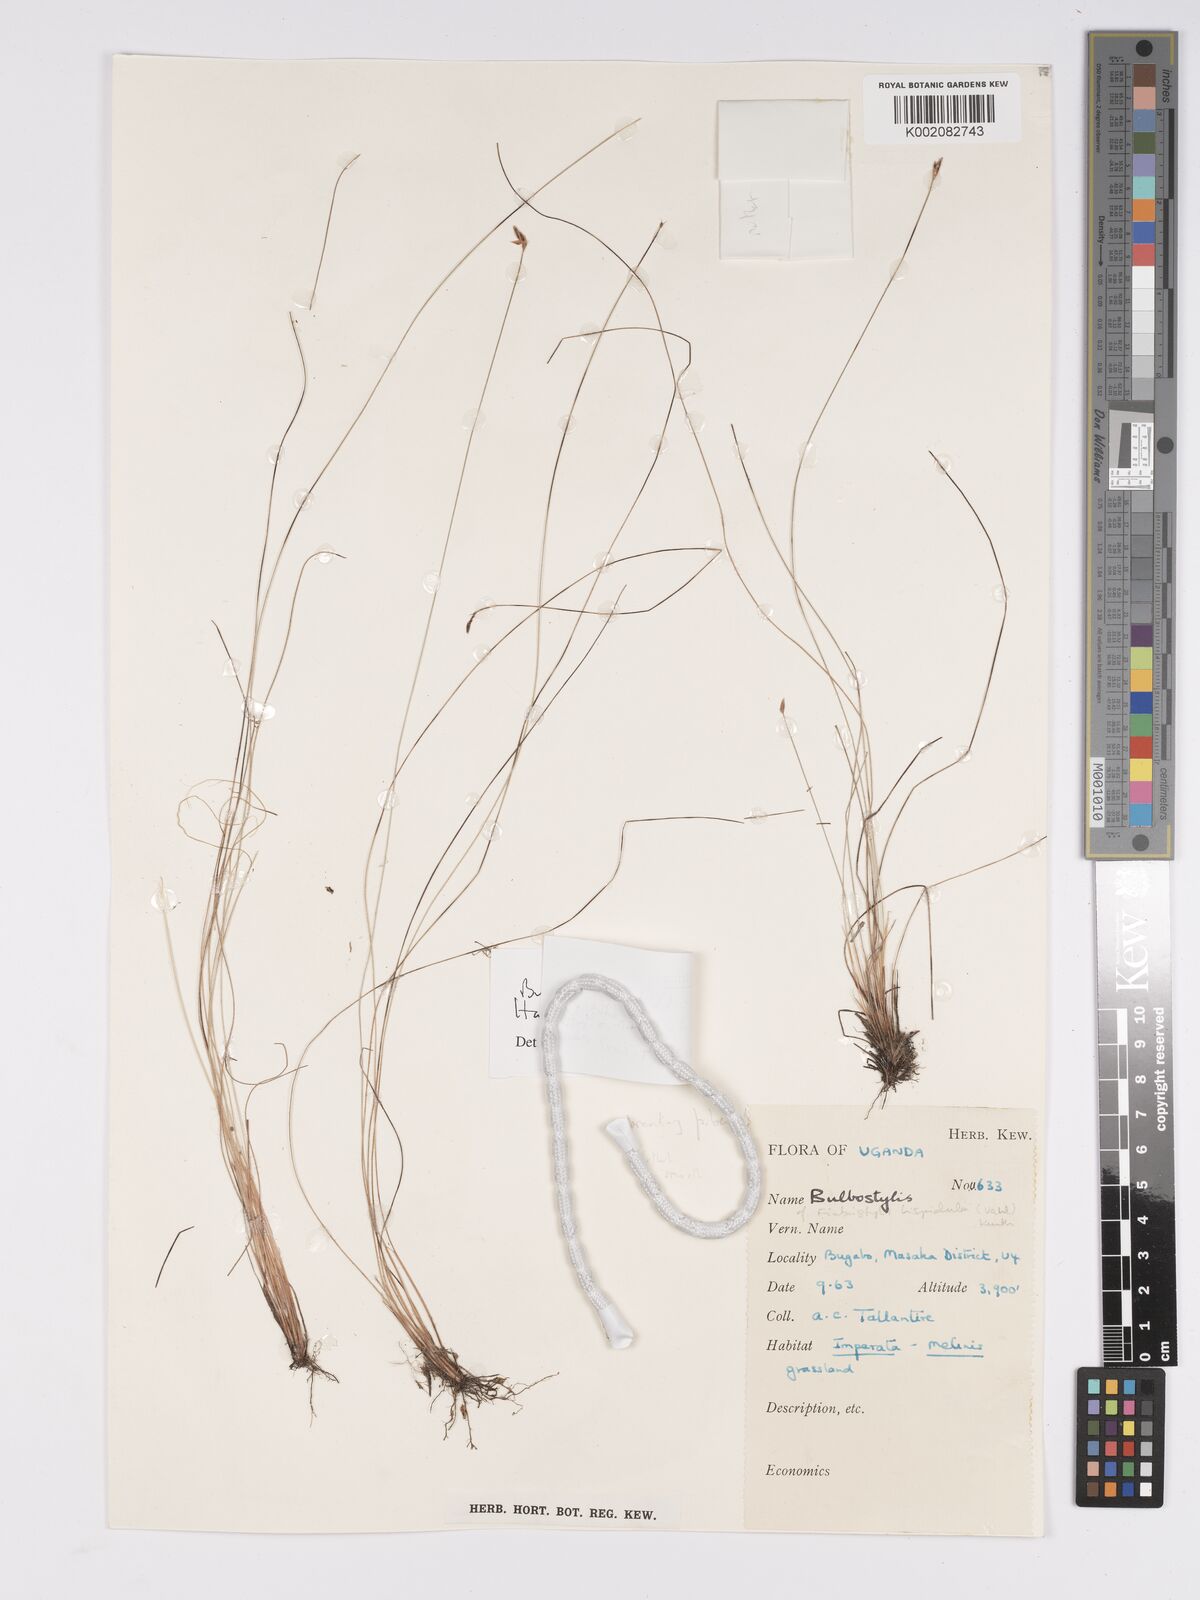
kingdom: Plantae
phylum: Tracheophyta
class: Liliopsida
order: Poales
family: Cyperaceae
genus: Bulbostylis
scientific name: Bulbostylis hispidula
